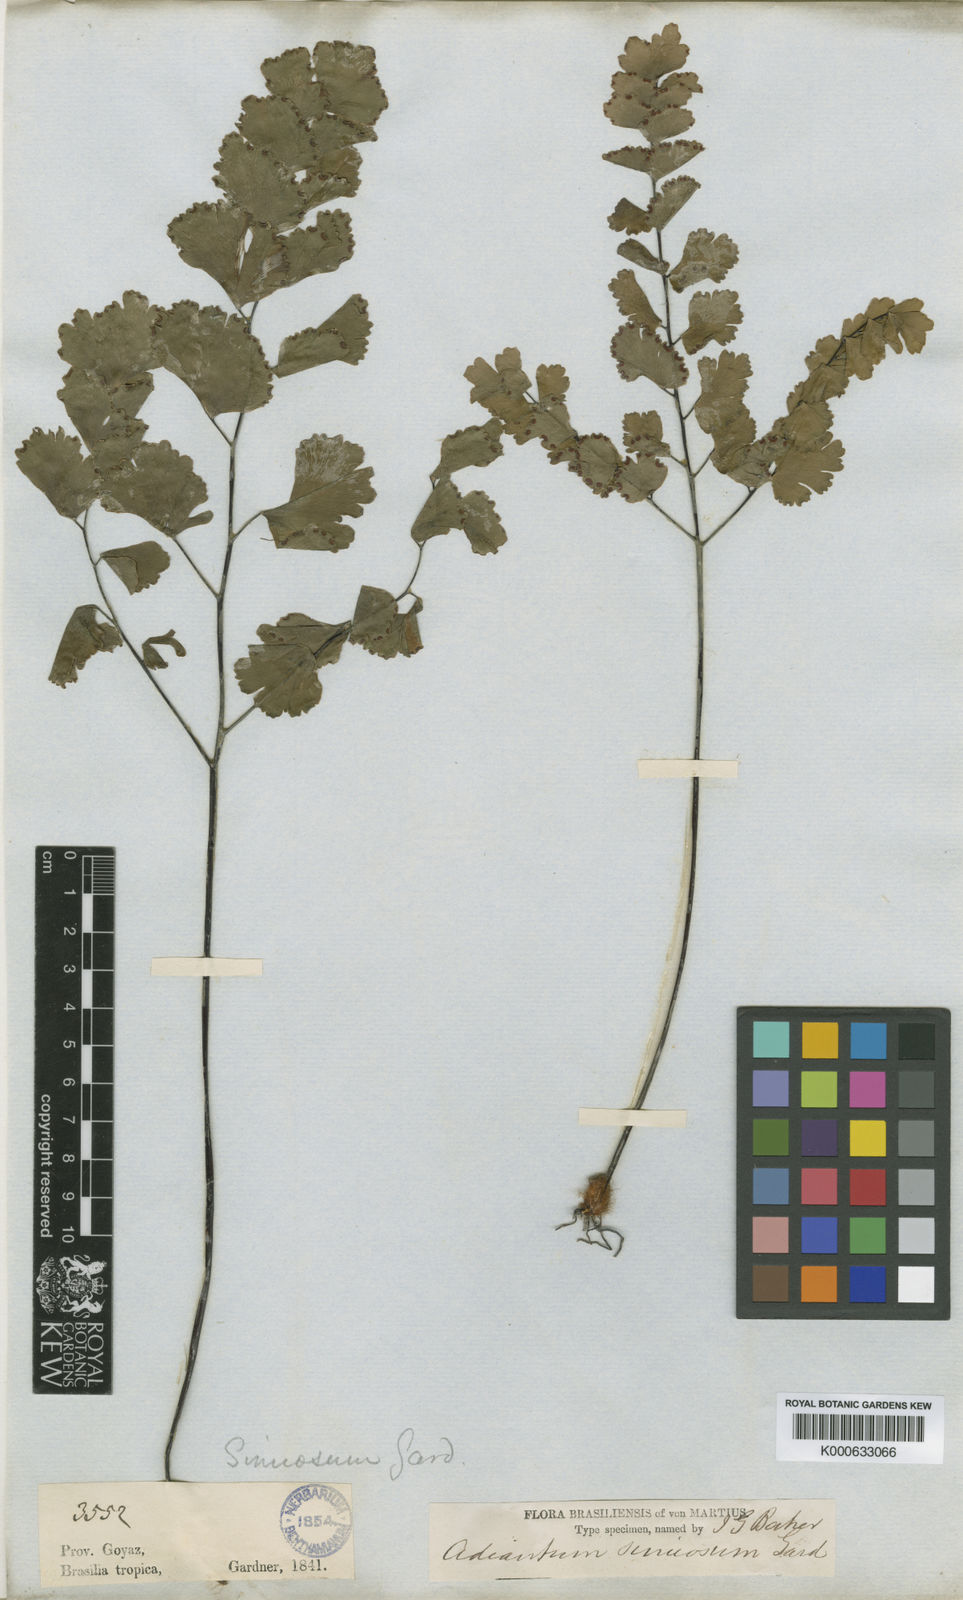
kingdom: Plantae
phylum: Tracheophyta
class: Polypodiopsida
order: Polypodiales
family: Pteridaceae
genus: Adiantum
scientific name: Adiantum sinuosum
